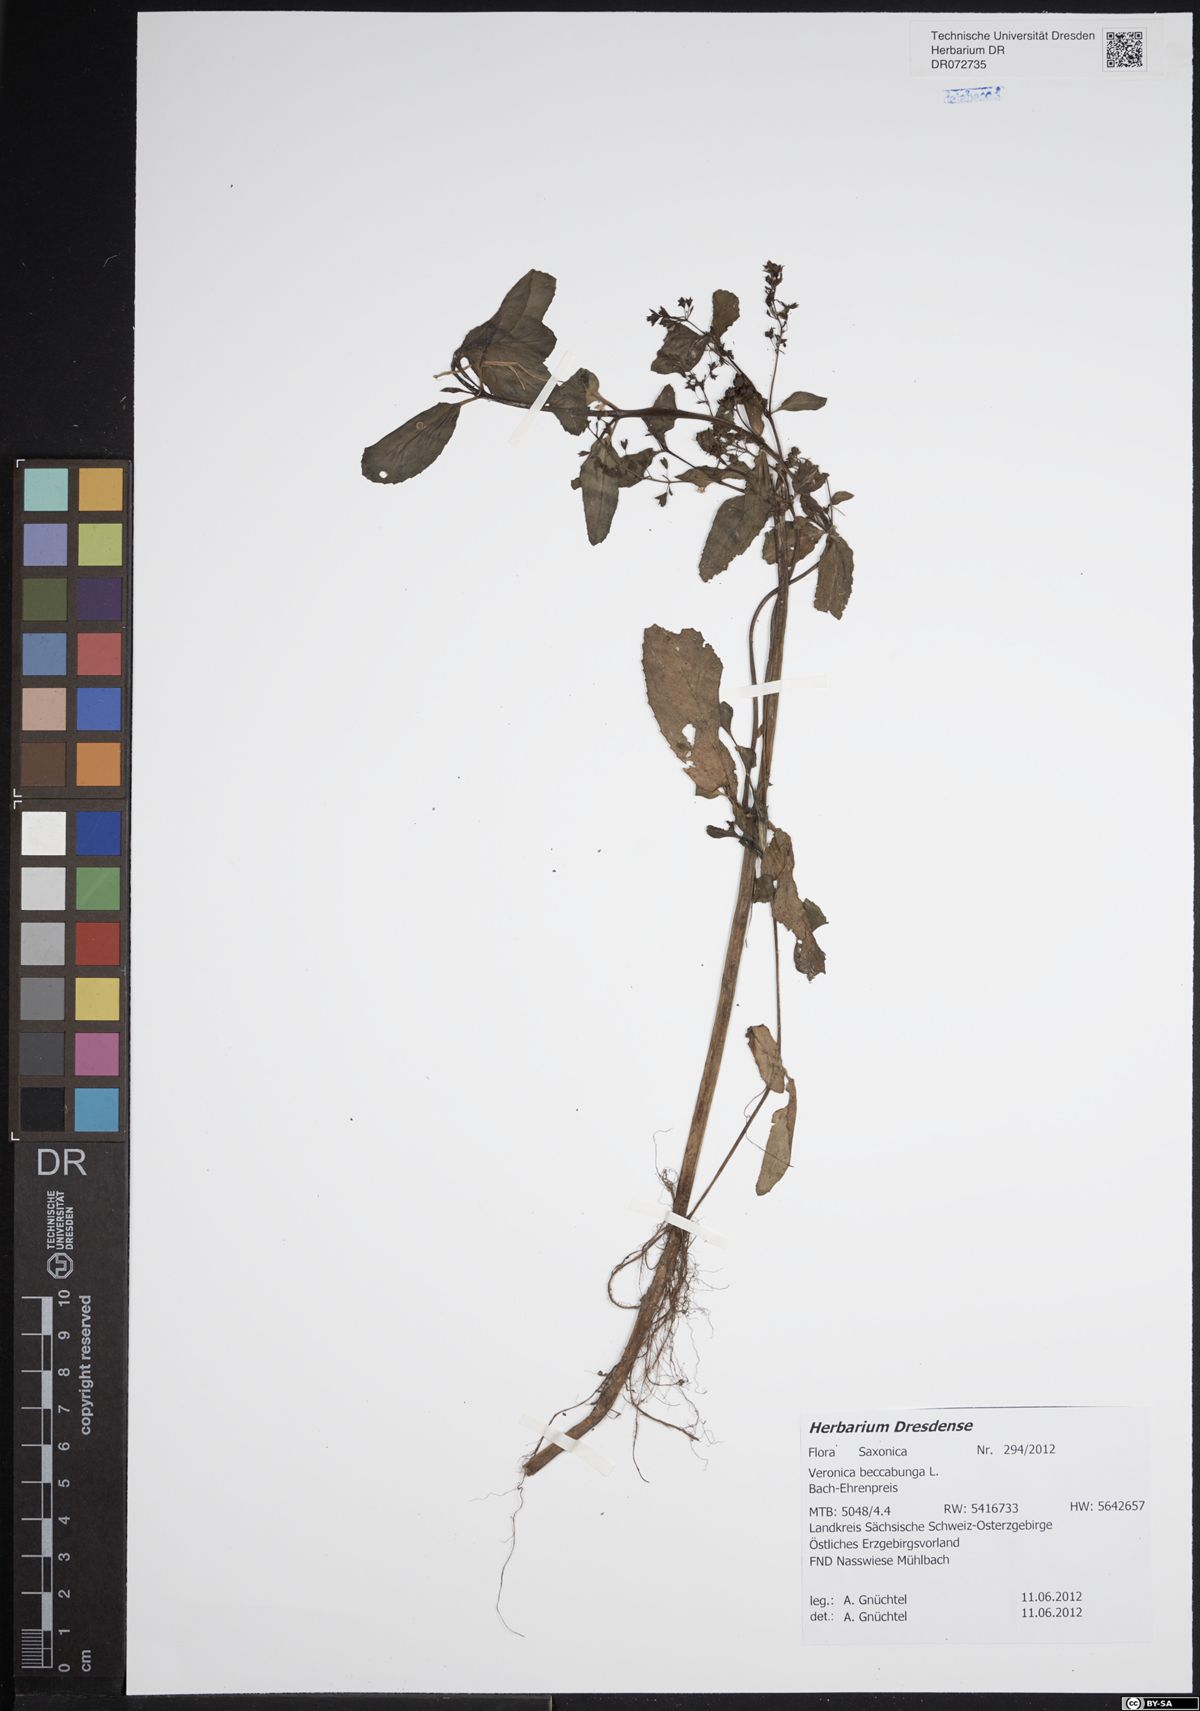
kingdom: Plantae
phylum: Tracheophyta
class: Magnoliopsida
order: Lamiales
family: Plantaginaceae
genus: Veronica
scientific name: Veronica beccabunga
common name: Brooklime
